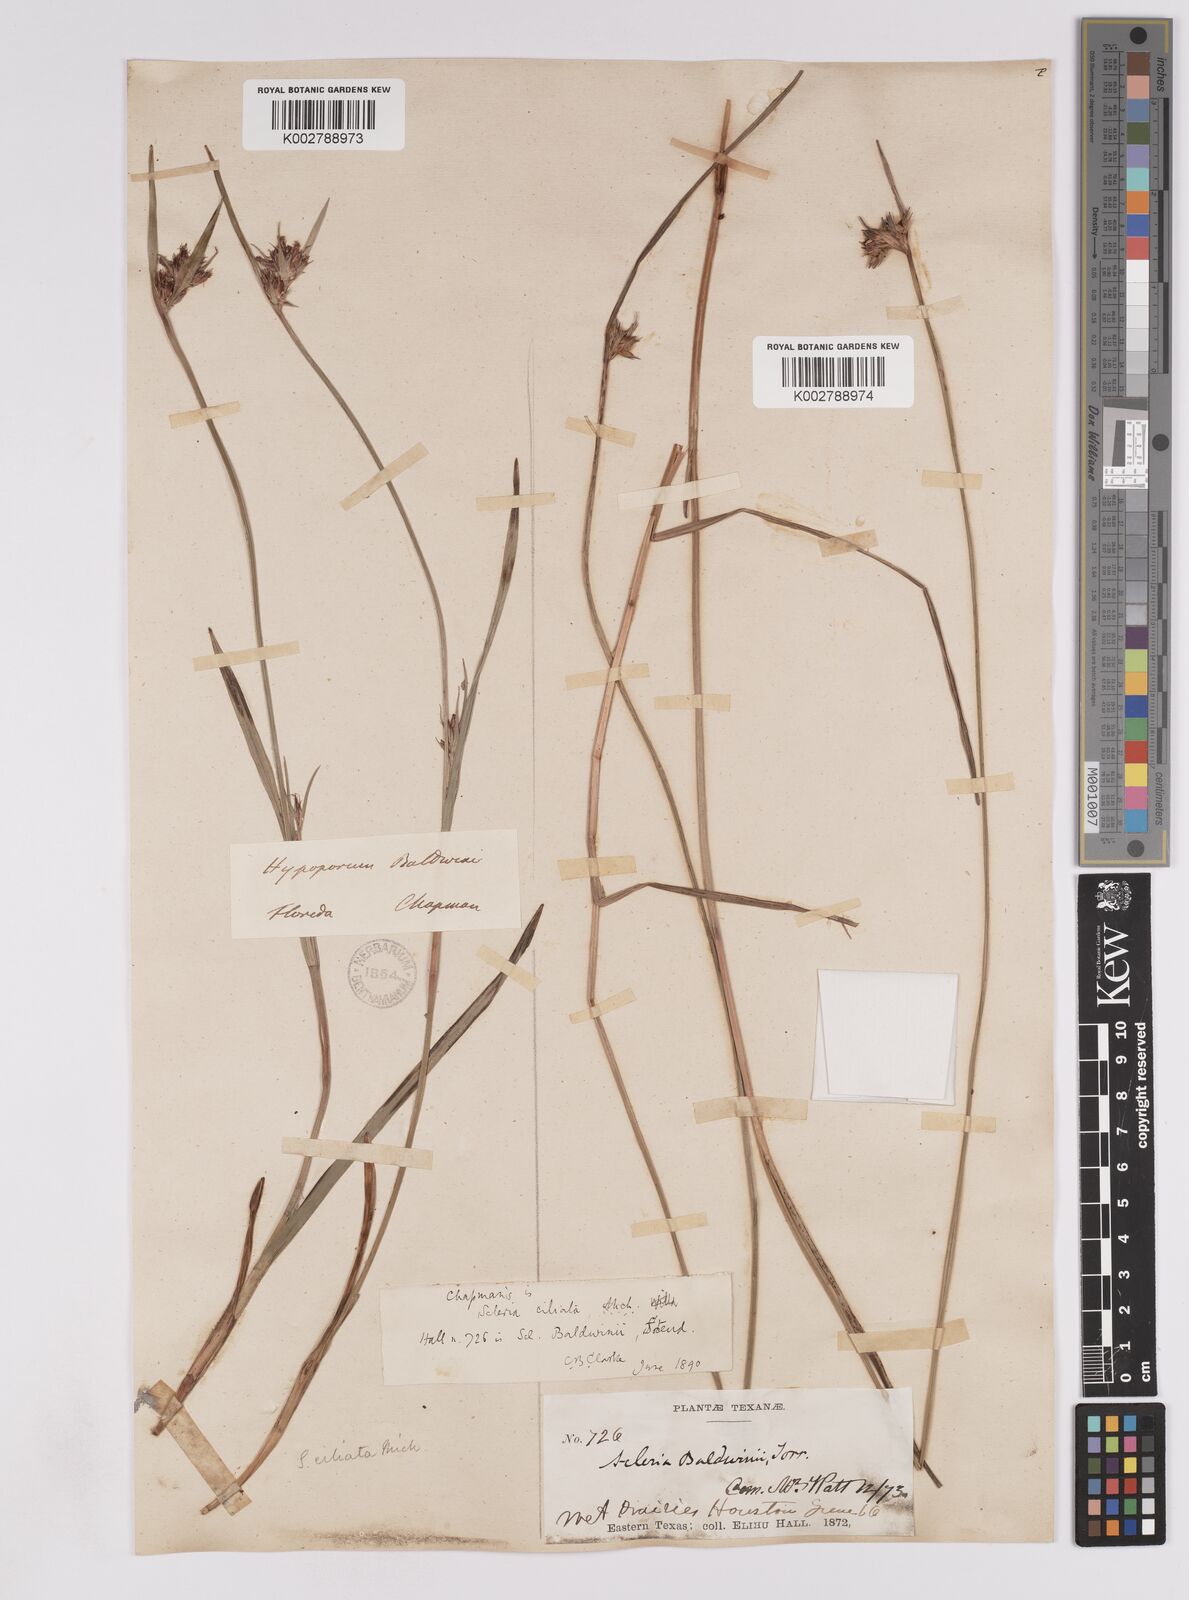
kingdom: Plantae
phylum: Tracheophyta
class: Liliopsida
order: Poales
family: Cyperaceae
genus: Scleria
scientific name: Scleria baldwinii
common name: Baldwin's nutrush
